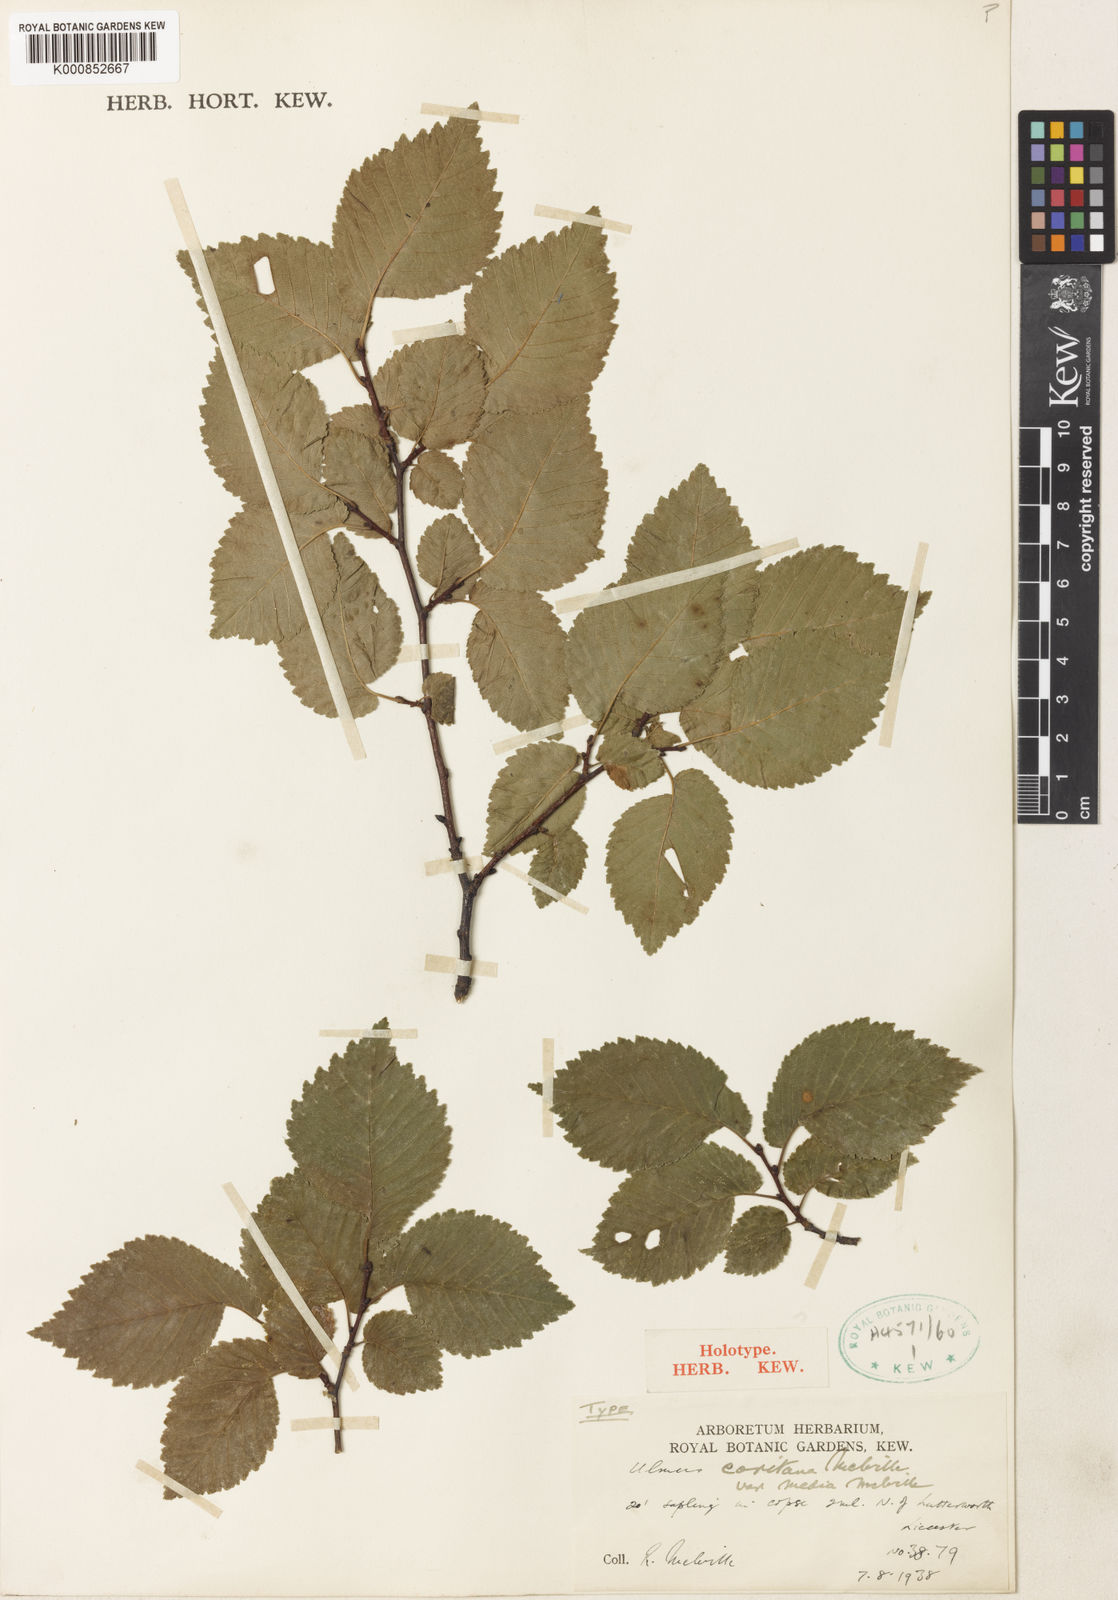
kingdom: Plantae
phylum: Tracheophyta
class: Magnoliopsida
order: Rosales
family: Ulmaceae
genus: Ulmus
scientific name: Ulmus minor
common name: Small-leaved elm
